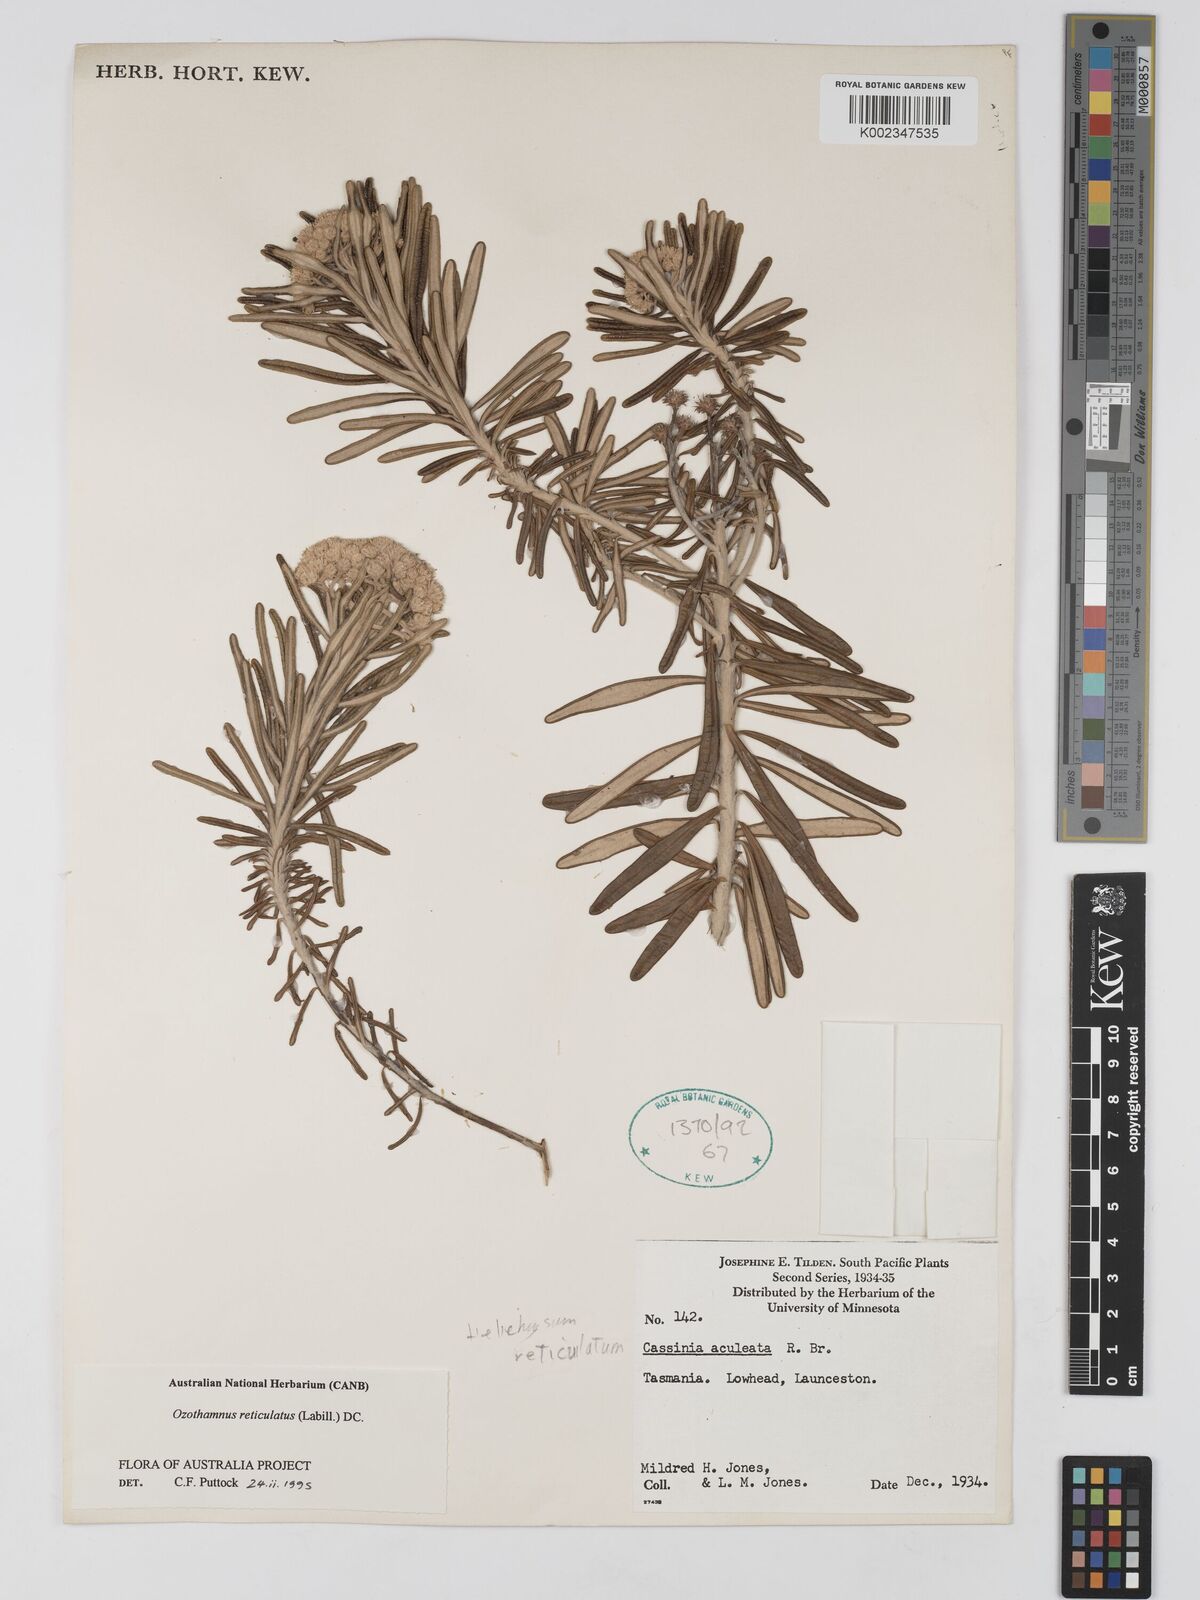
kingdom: Plantae
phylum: Tracheophyta
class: Magnoliopsida
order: Asterales
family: Asteraceae
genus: Ozothamnus
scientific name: Ozothamnus reticulatus
